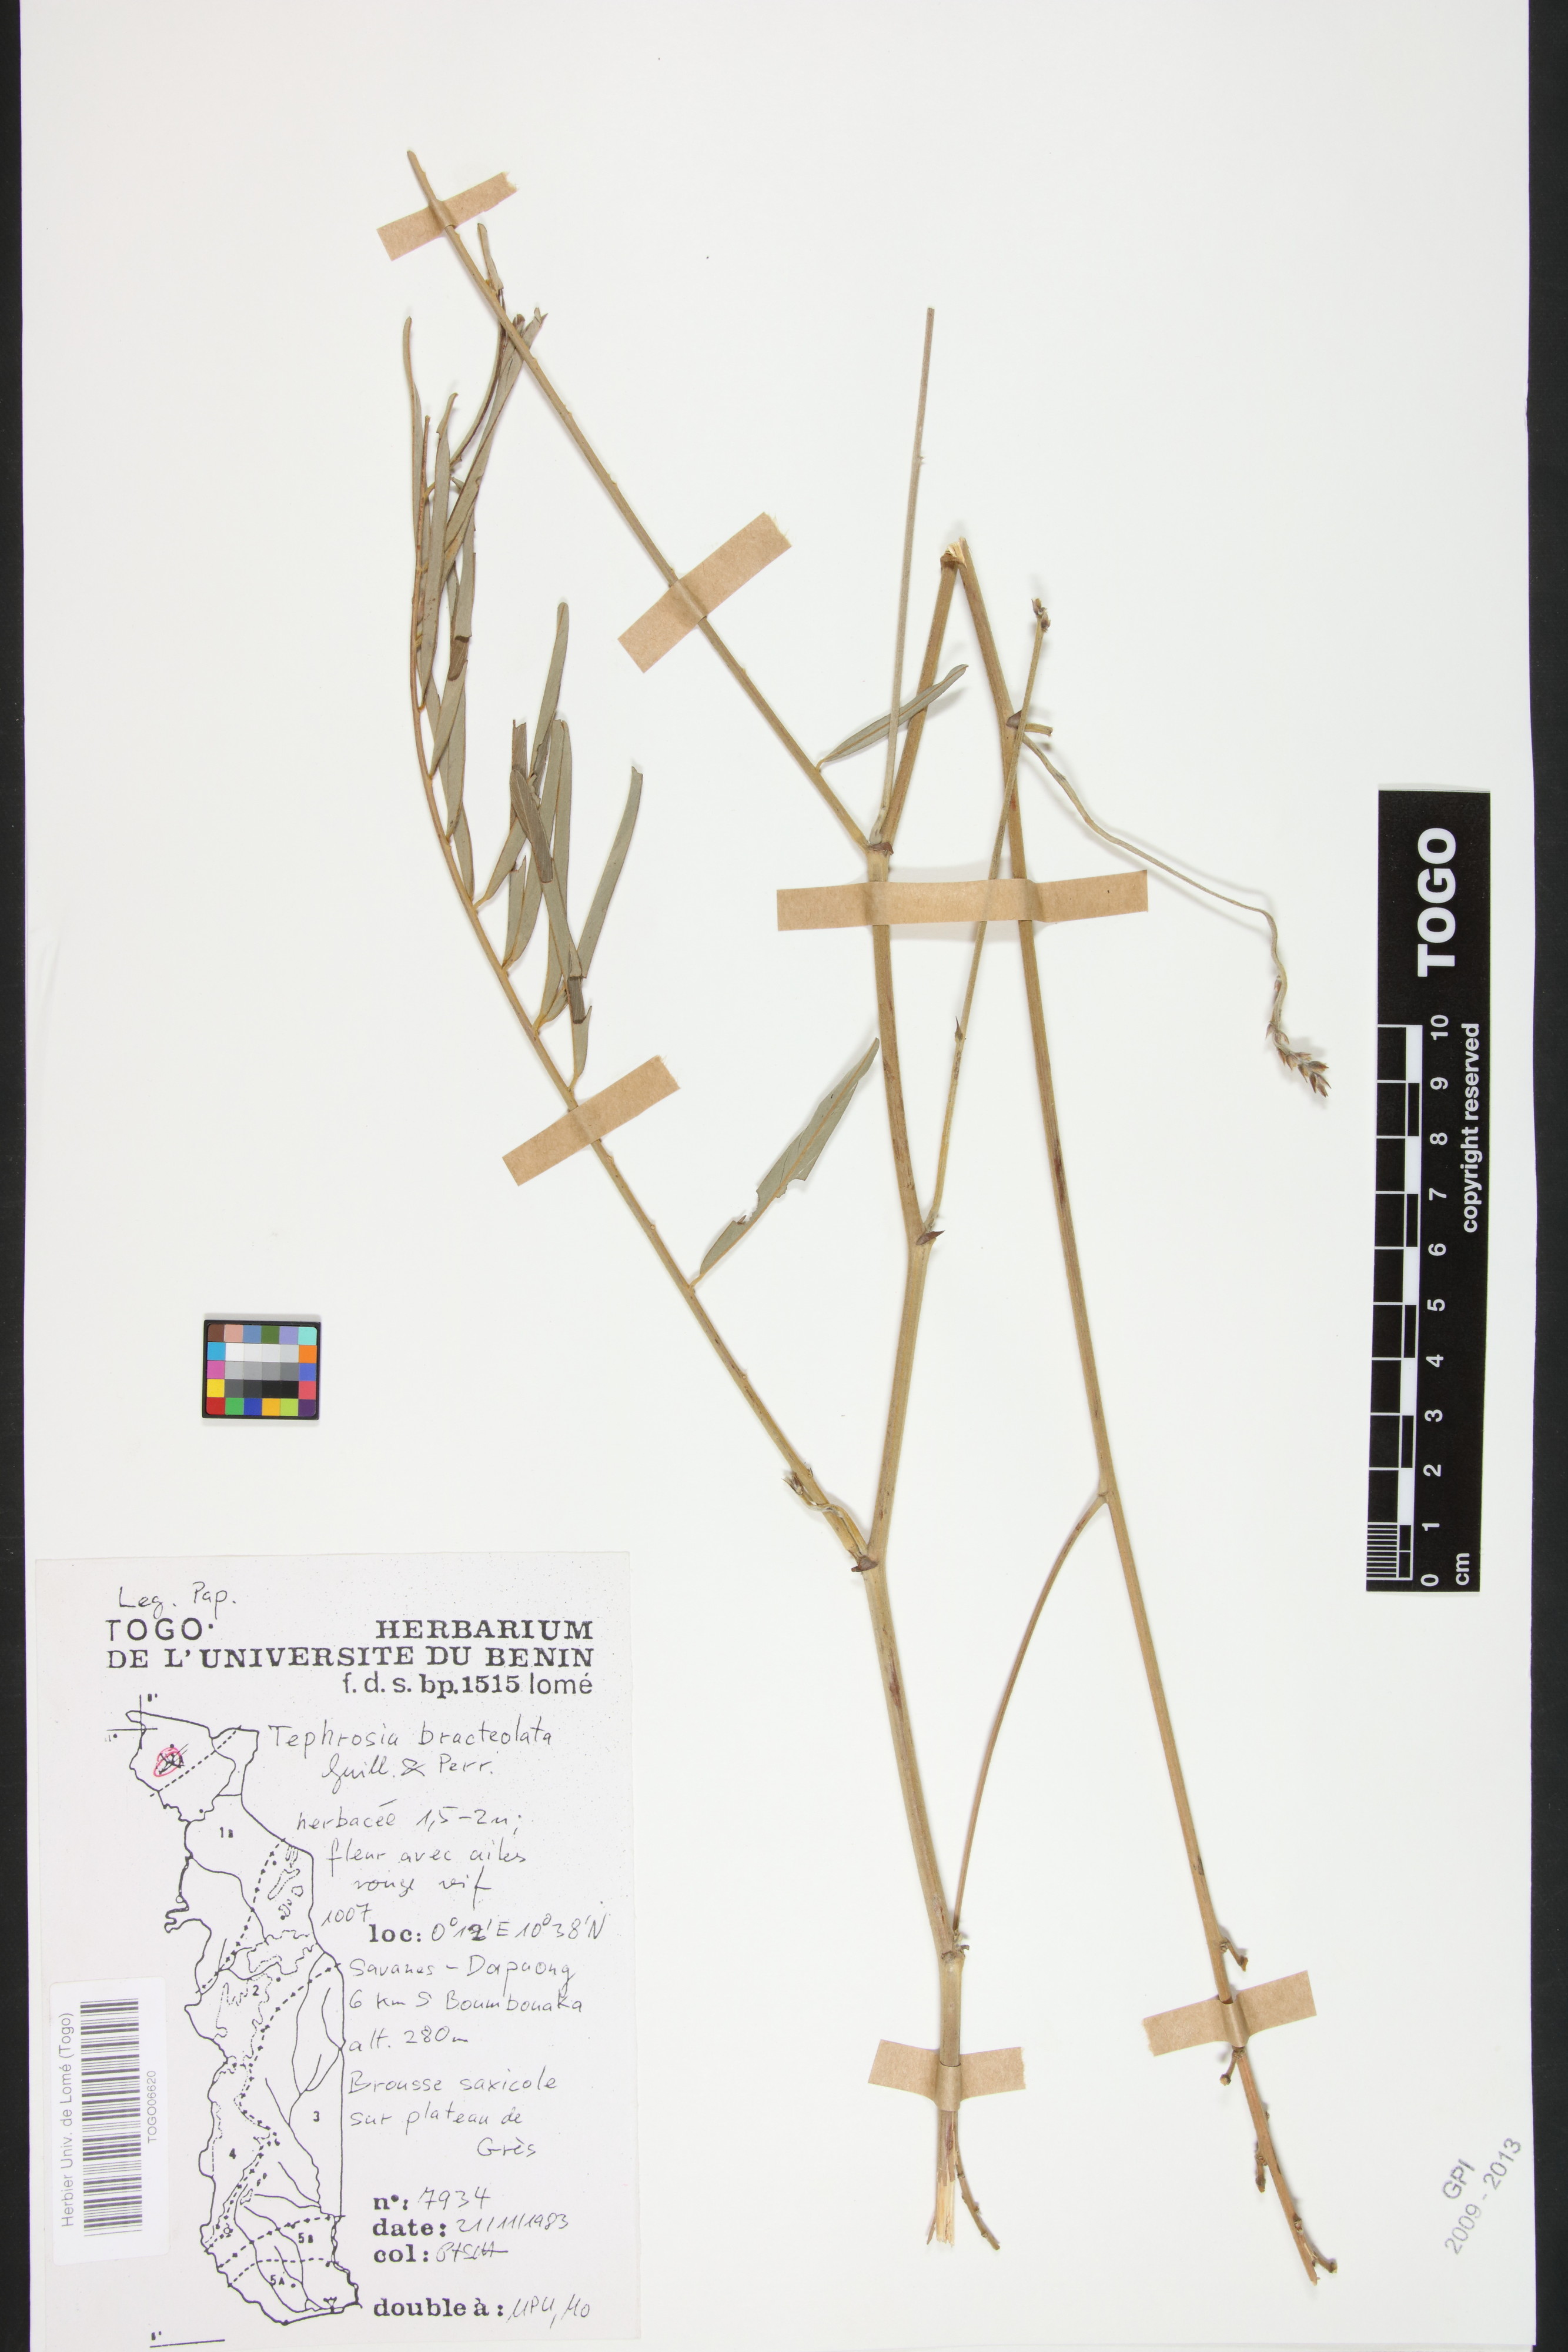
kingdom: Plantae
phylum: Tracheophyta
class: Magnoliopsida
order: Fabales
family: Fabaceae
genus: Tephrosia
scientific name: Tephrosia bracteolata
